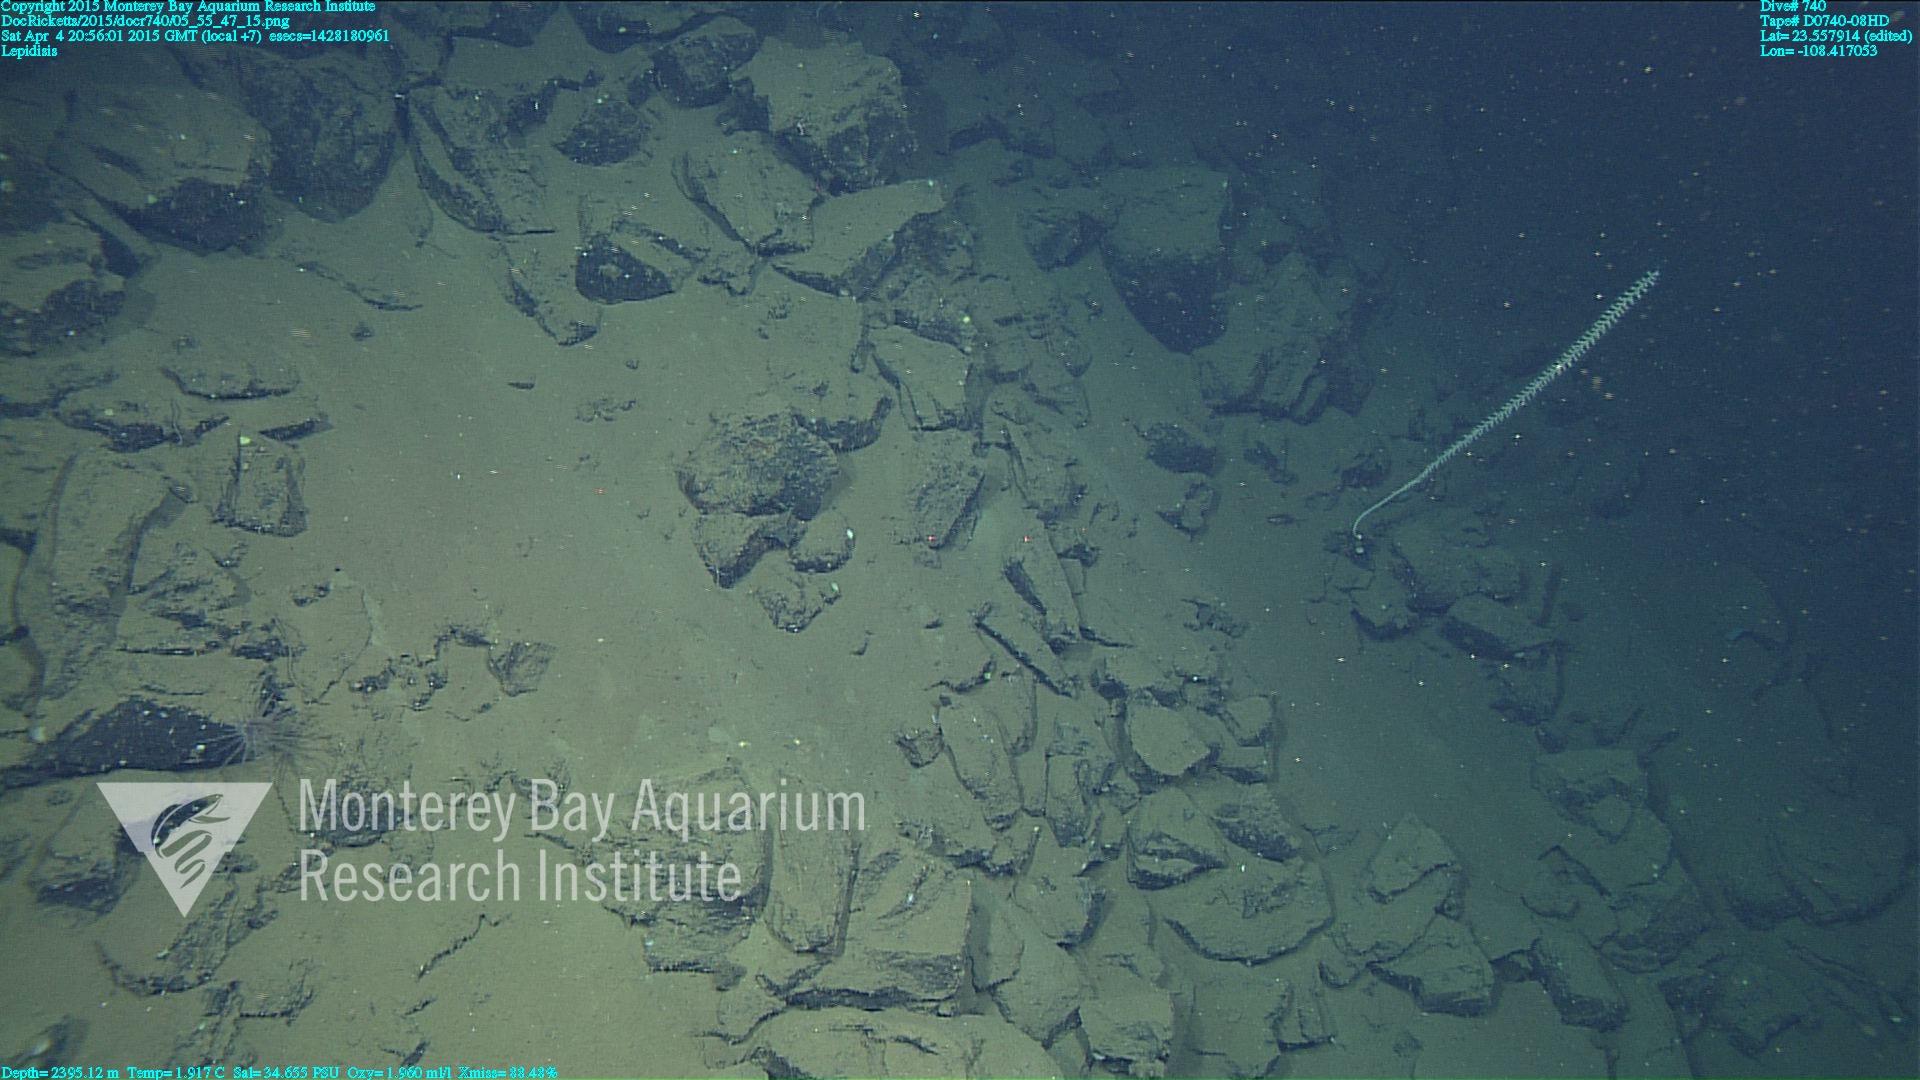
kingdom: Animalia
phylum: Cnidaria
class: Anthozoa
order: Scleralcyonacea
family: Keratoisididae
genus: Lepidisis
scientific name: Lepidisis
